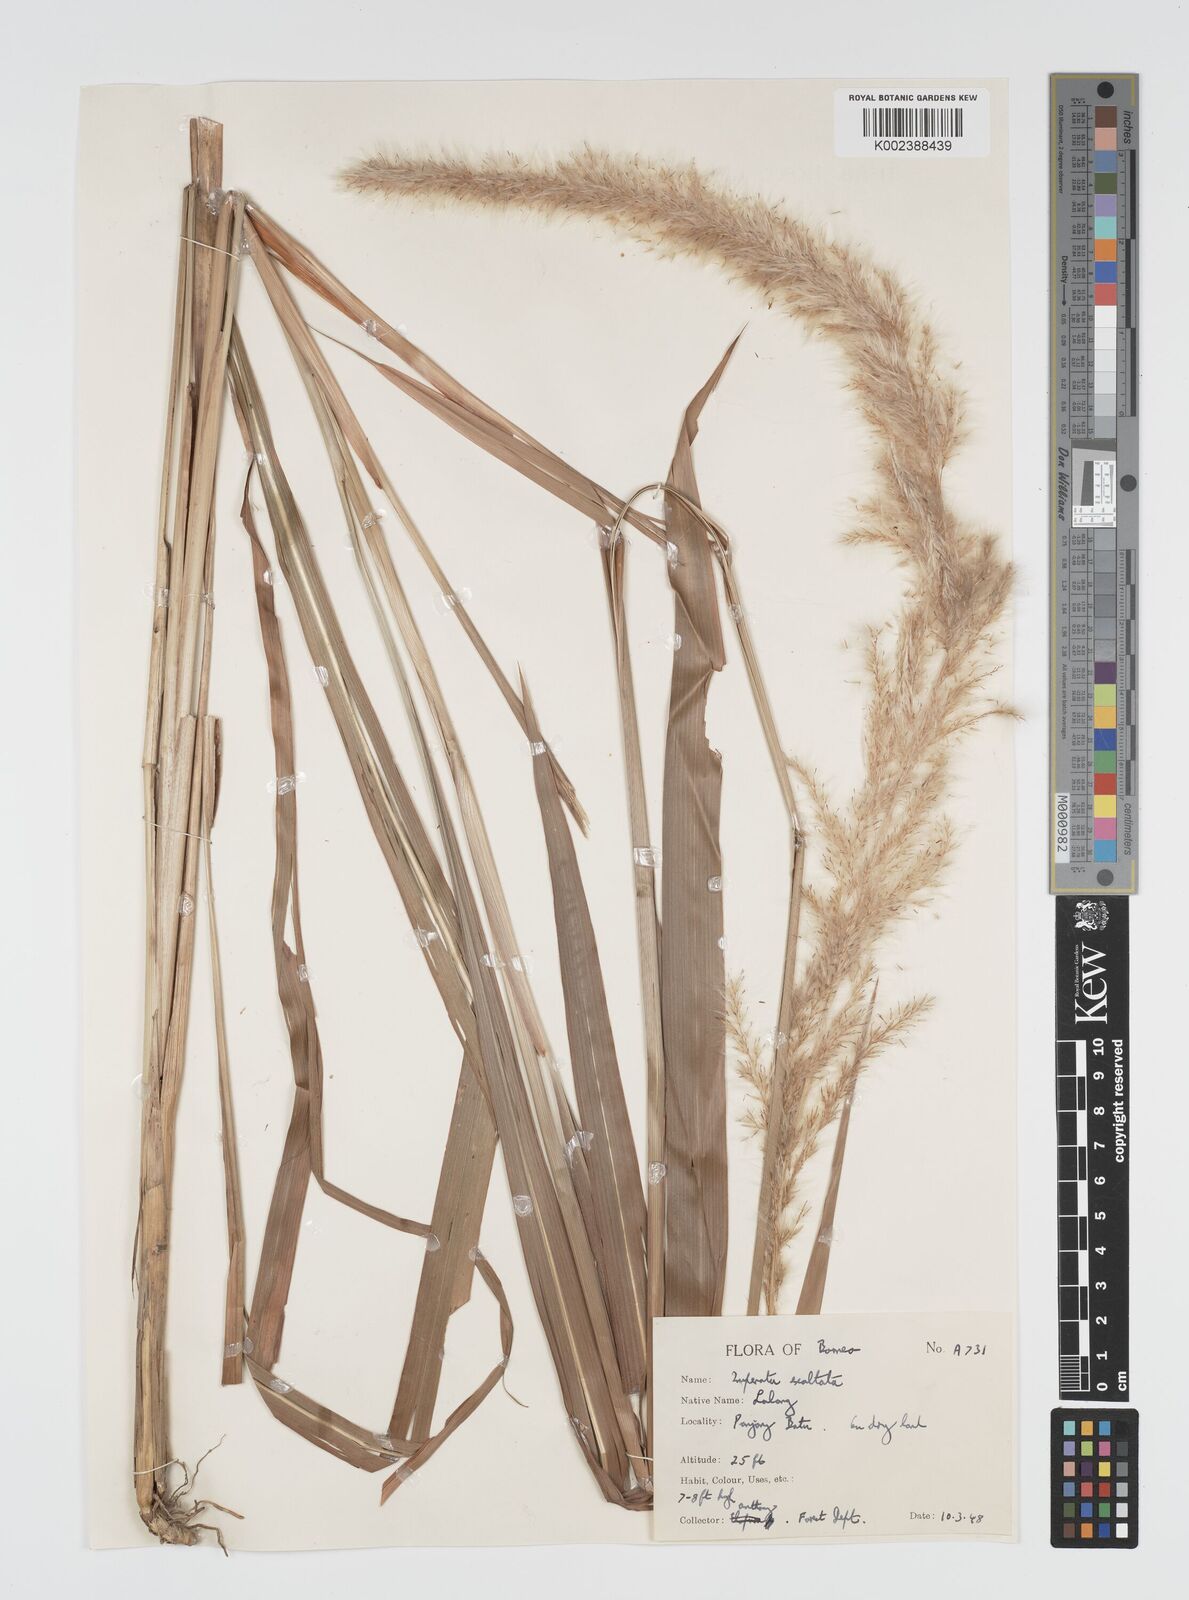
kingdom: Plantae
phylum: Tracheophyta
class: Liliopsida
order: Poales
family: Poaceae
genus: Imperata
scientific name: Imperata conferta
